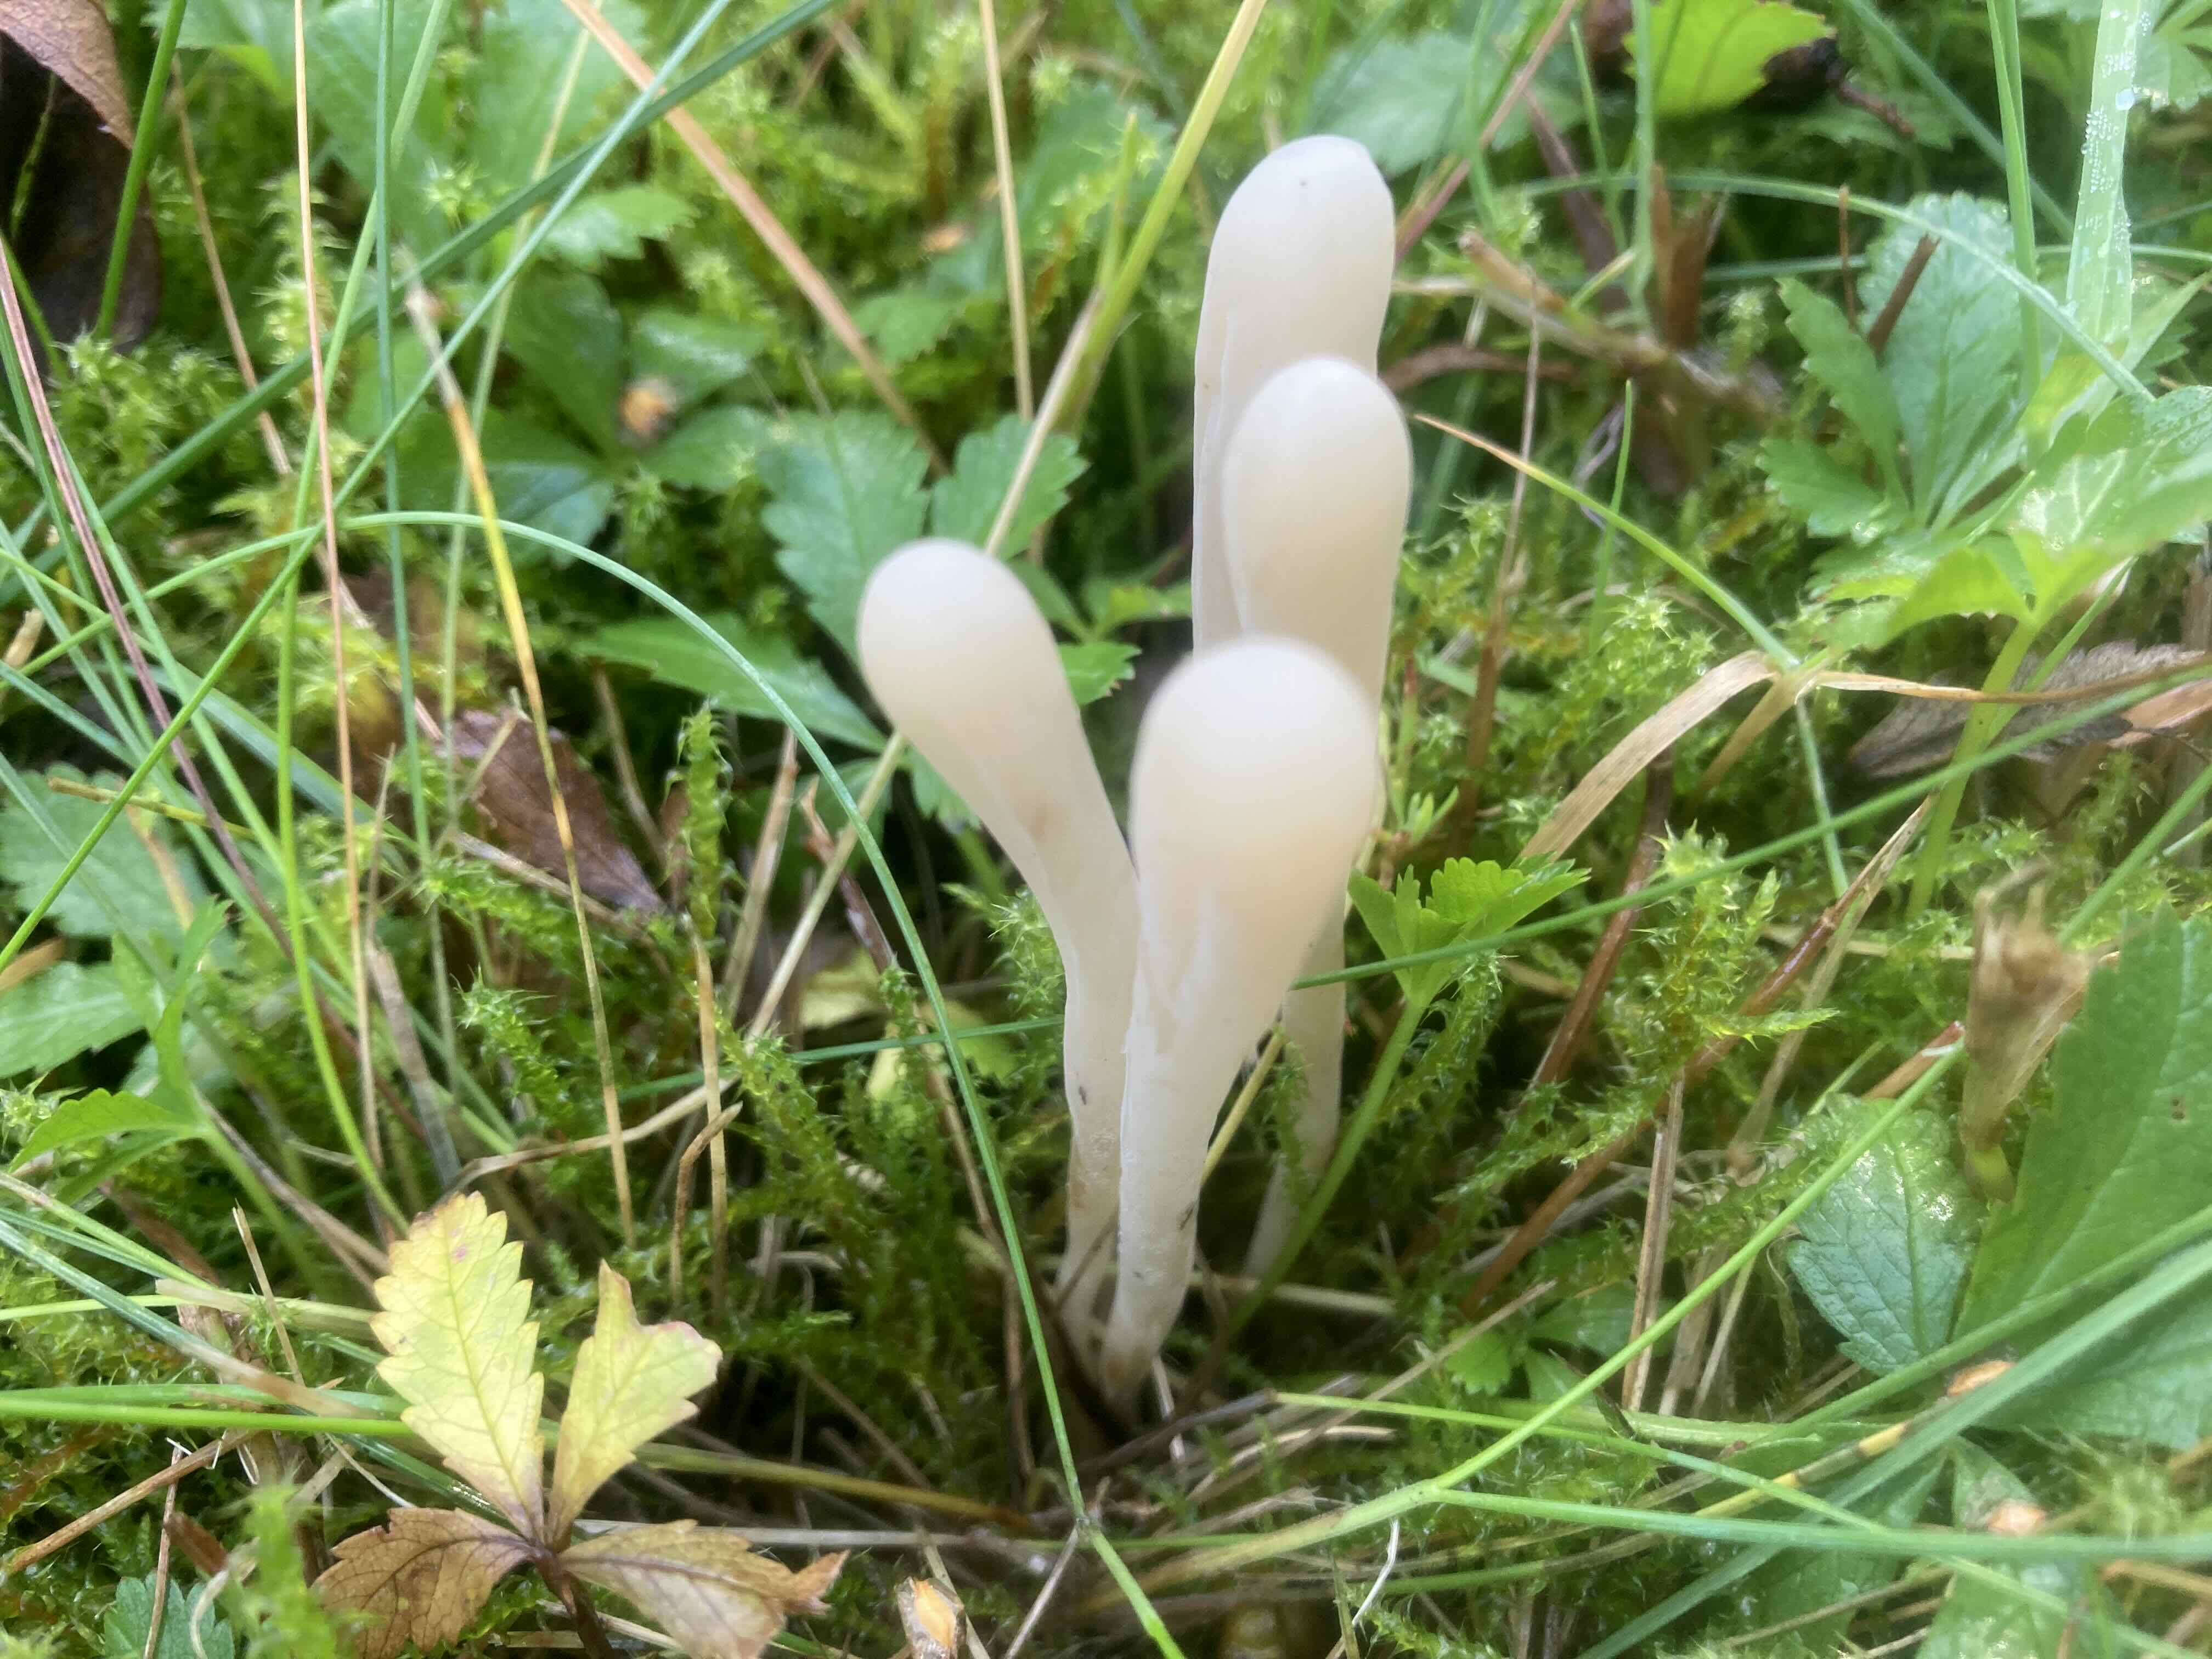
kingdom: Fungi
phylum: Basidiomycota
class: Agaricomycetes
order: Agaricales
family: Clavariaceae
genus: Clavaria
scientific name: Clavaria tenuipes
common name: isabellafarvet køllesvamp
